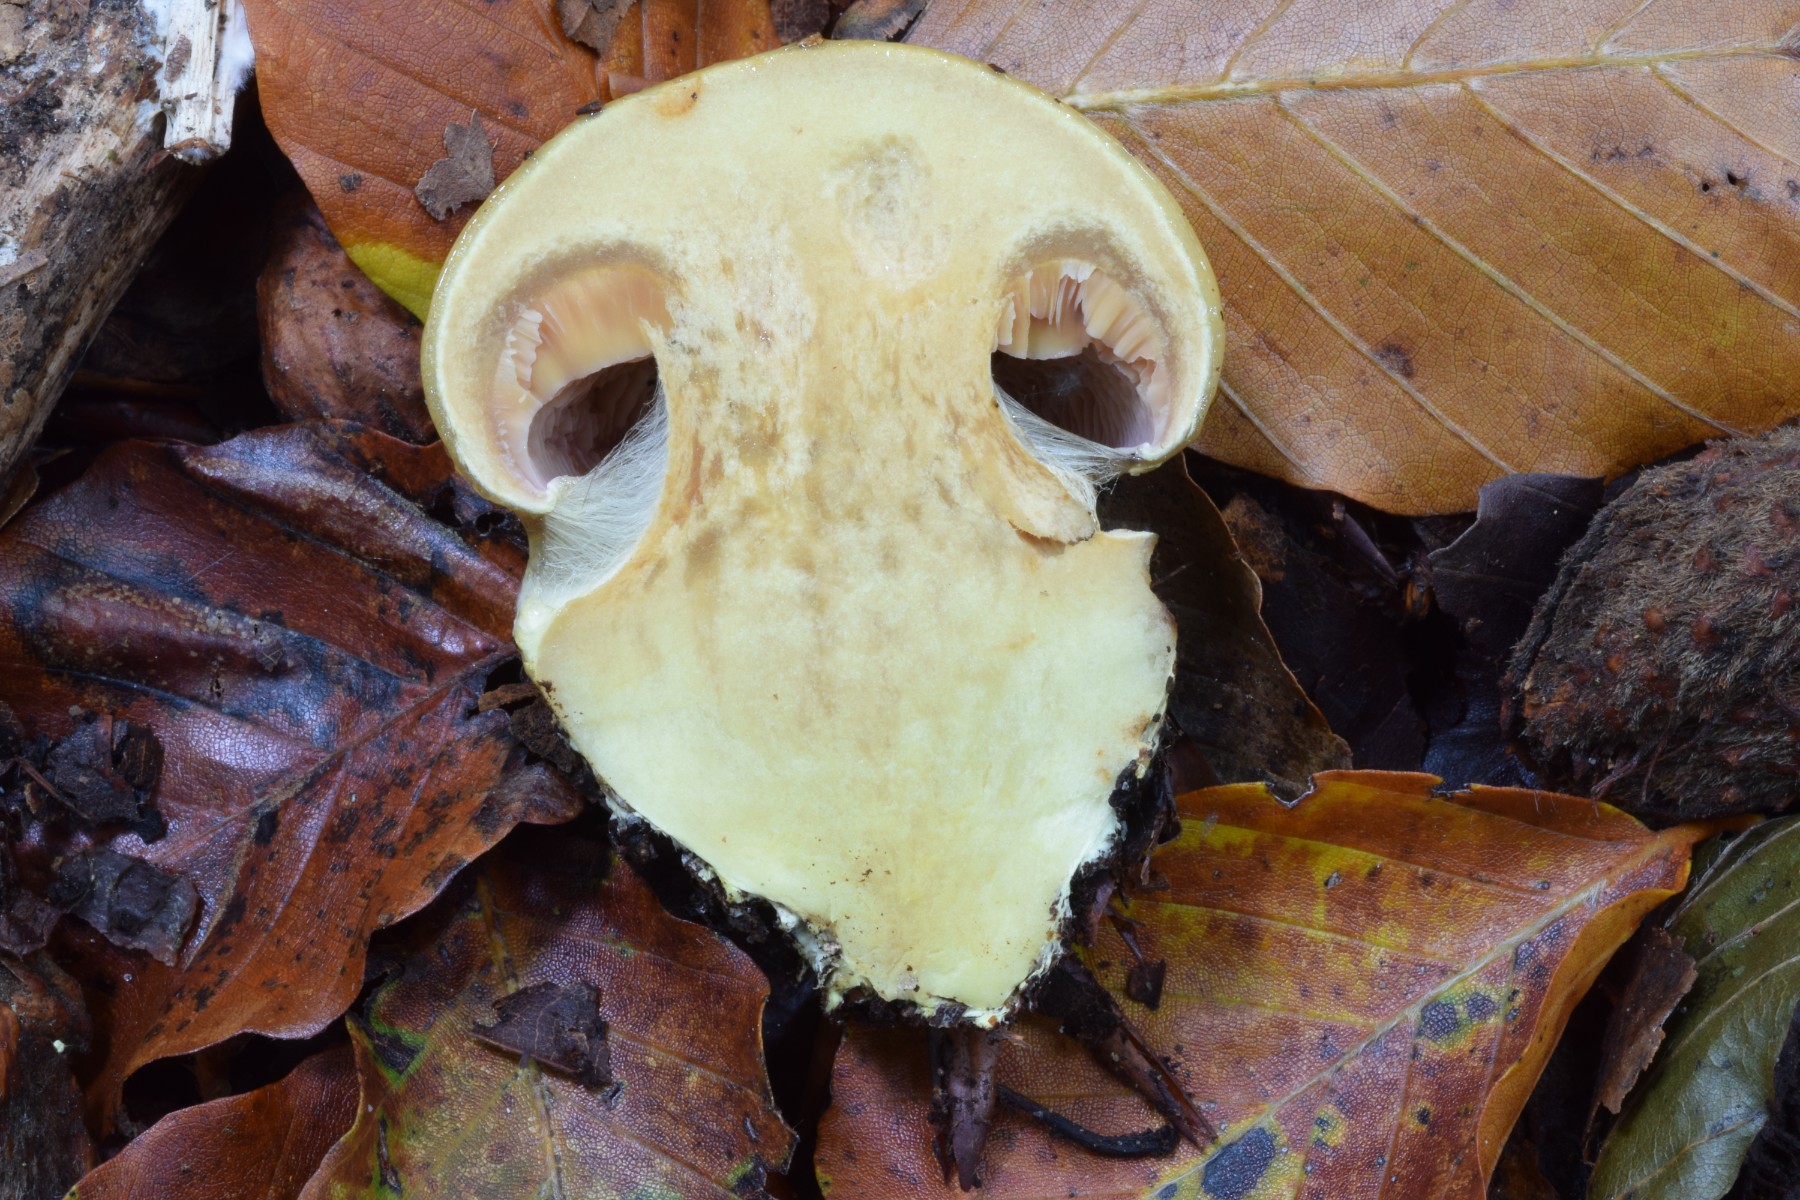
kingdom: Fungi
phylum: Basidiomycota
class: Agaricomycetes
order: Agaricales
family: Cortinariaceae
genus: Calonarius
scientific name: Calonarius fulvocitrinus
